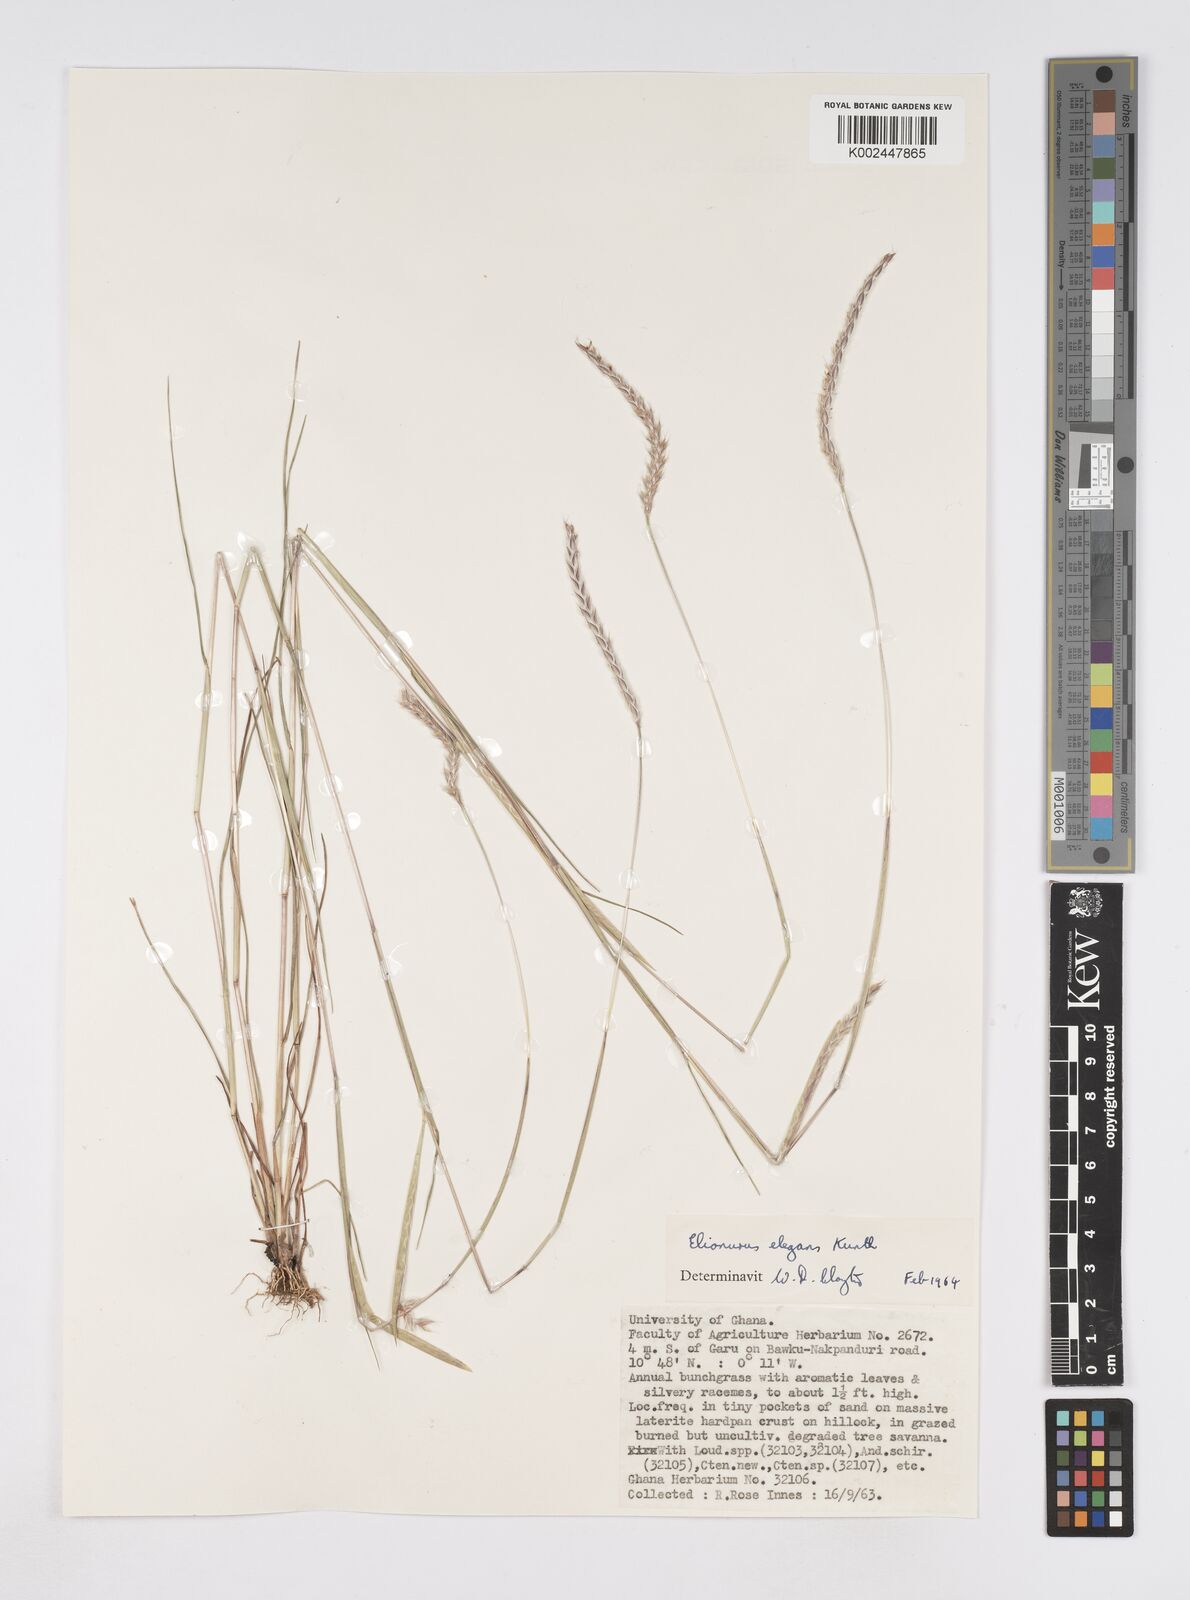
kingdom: Plantae
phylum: Tracheophyta
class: Liliopsida
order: Poales
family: Poaceae
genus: Elionurus
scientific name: Elionurus elegans
